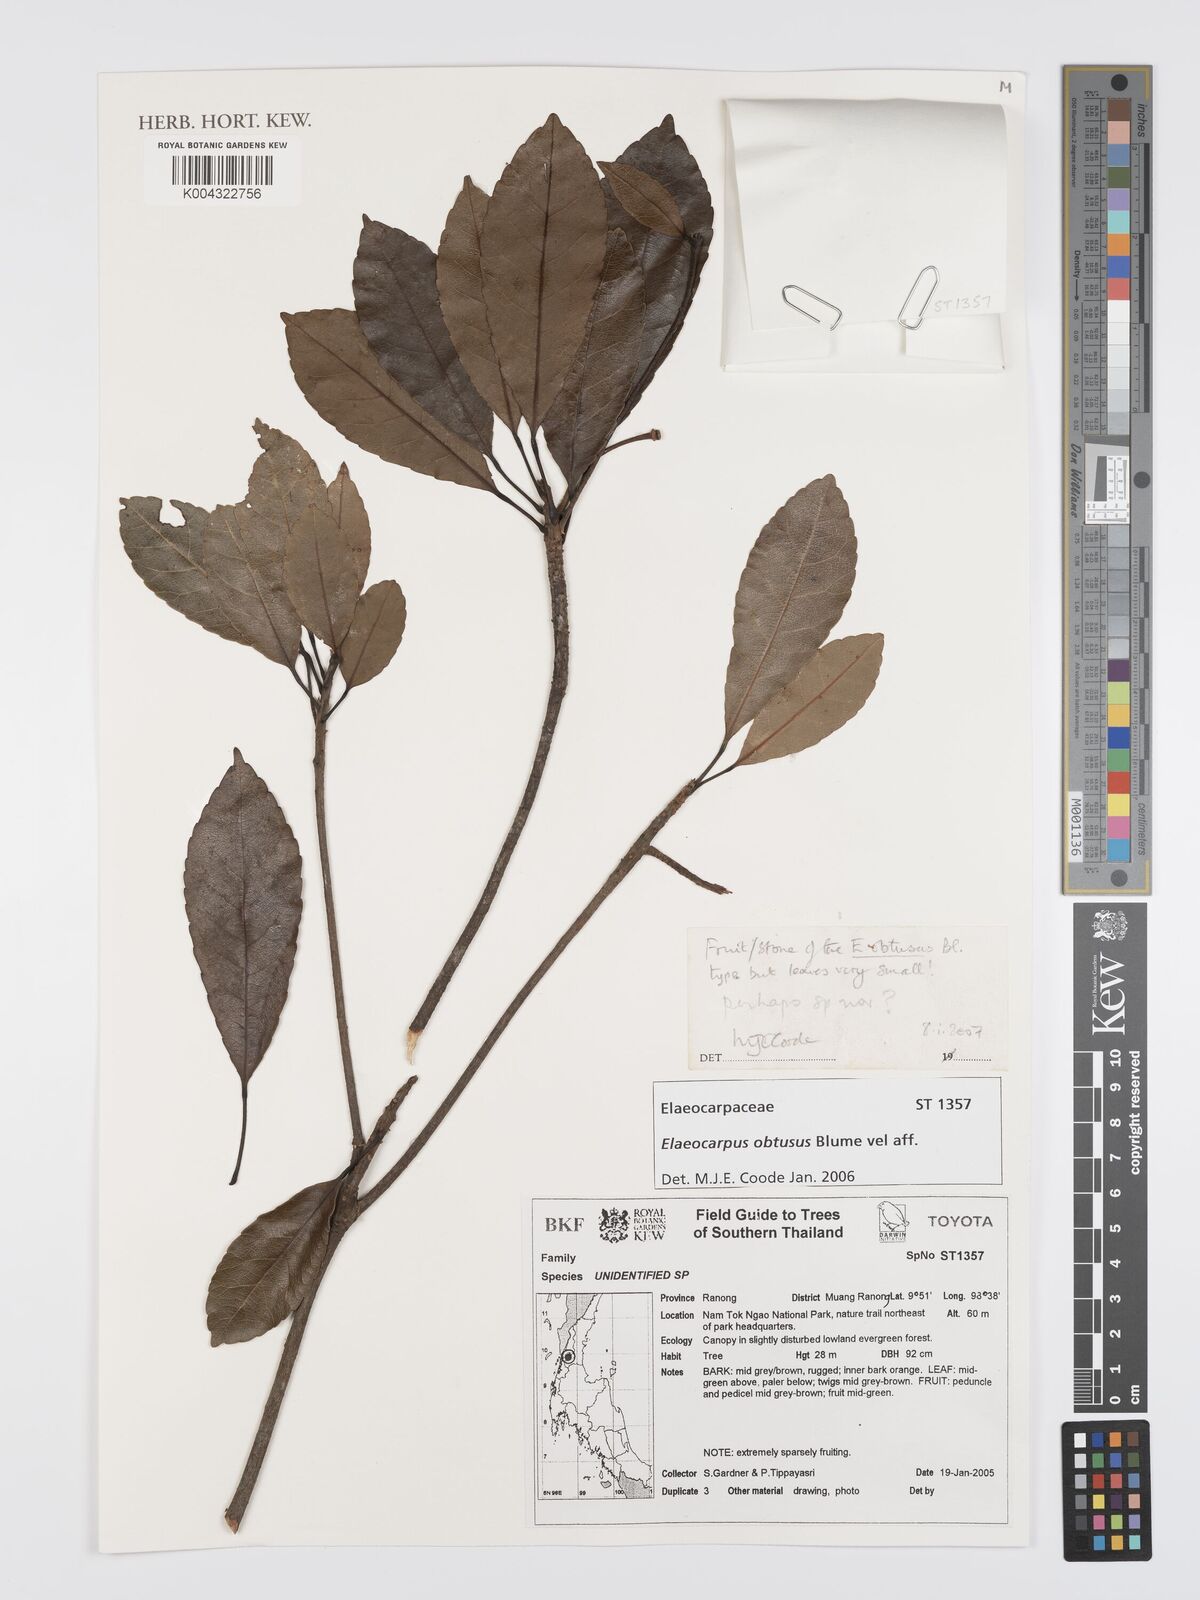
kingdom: Plantae
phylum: Tracheophyta
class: Magnoliopsida
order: Oxalidales
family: Elaeocarpaceae
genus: Elaeocarpus
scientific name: Elaeocarpus obtusus
